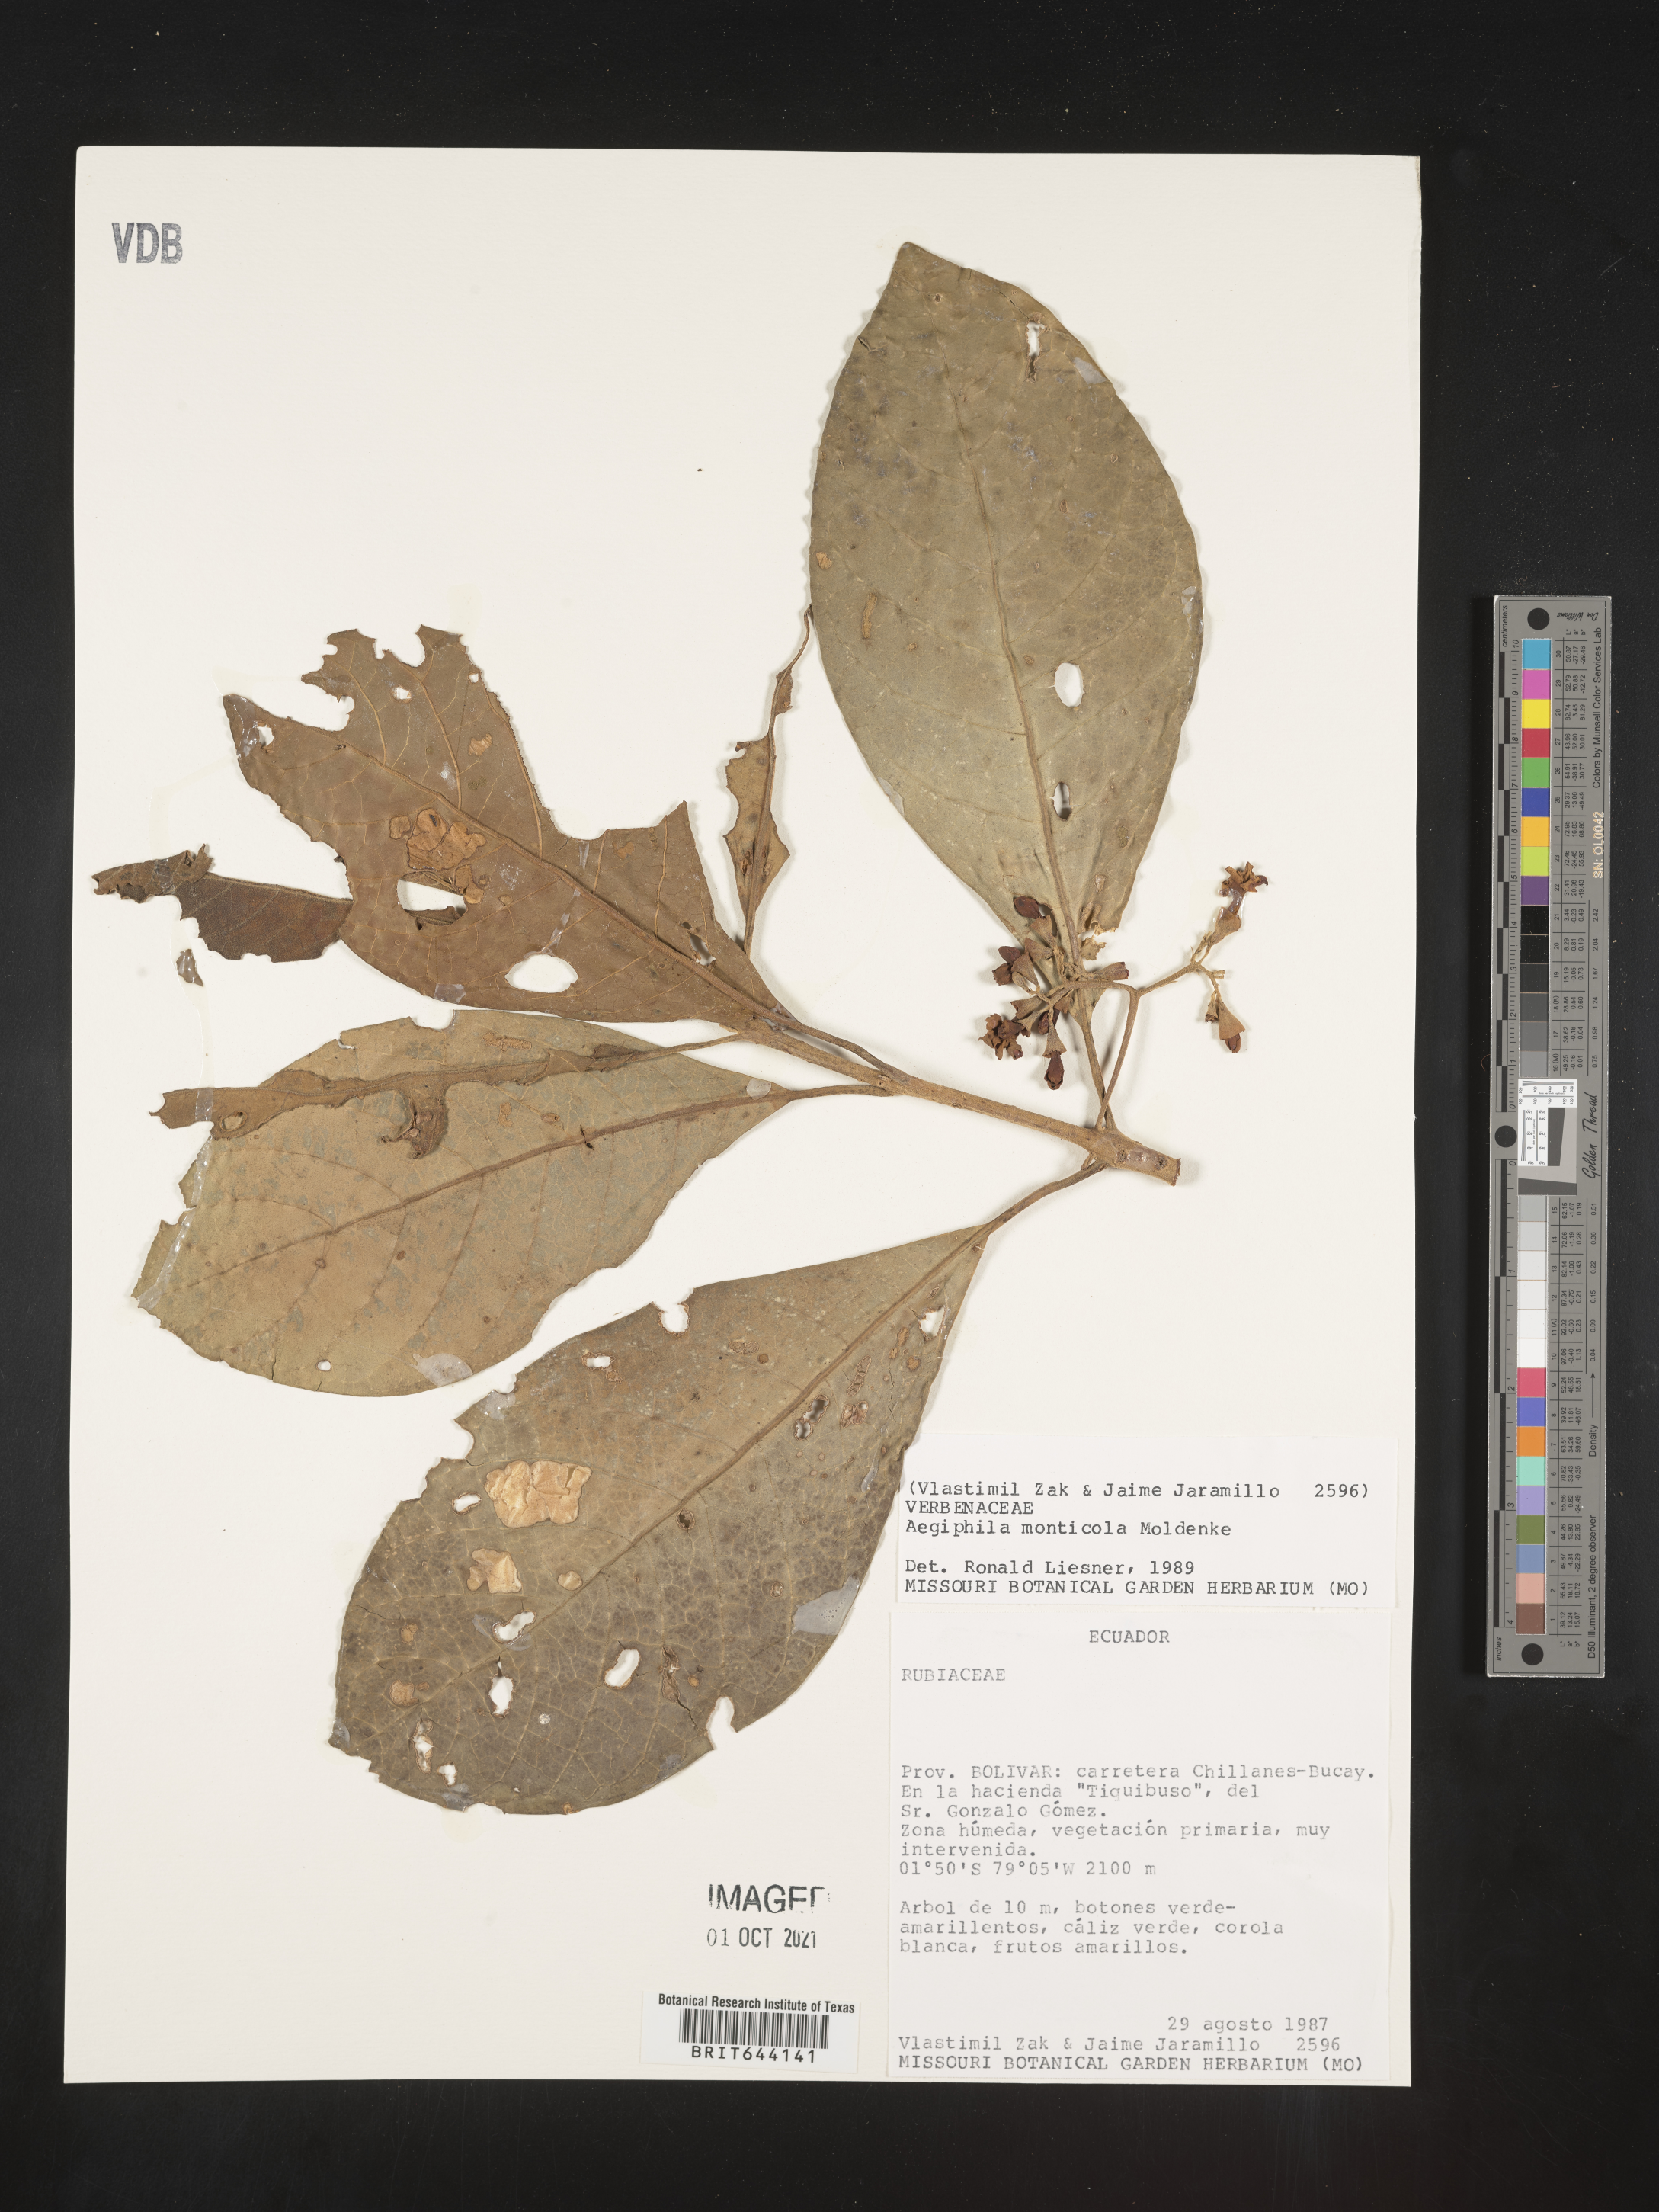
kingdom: Plantae
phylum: Tracheophyta
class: Magnoliopsida
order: Lamiales
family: Lamiaceae
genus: Aegiphila
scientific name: Aegiphila
